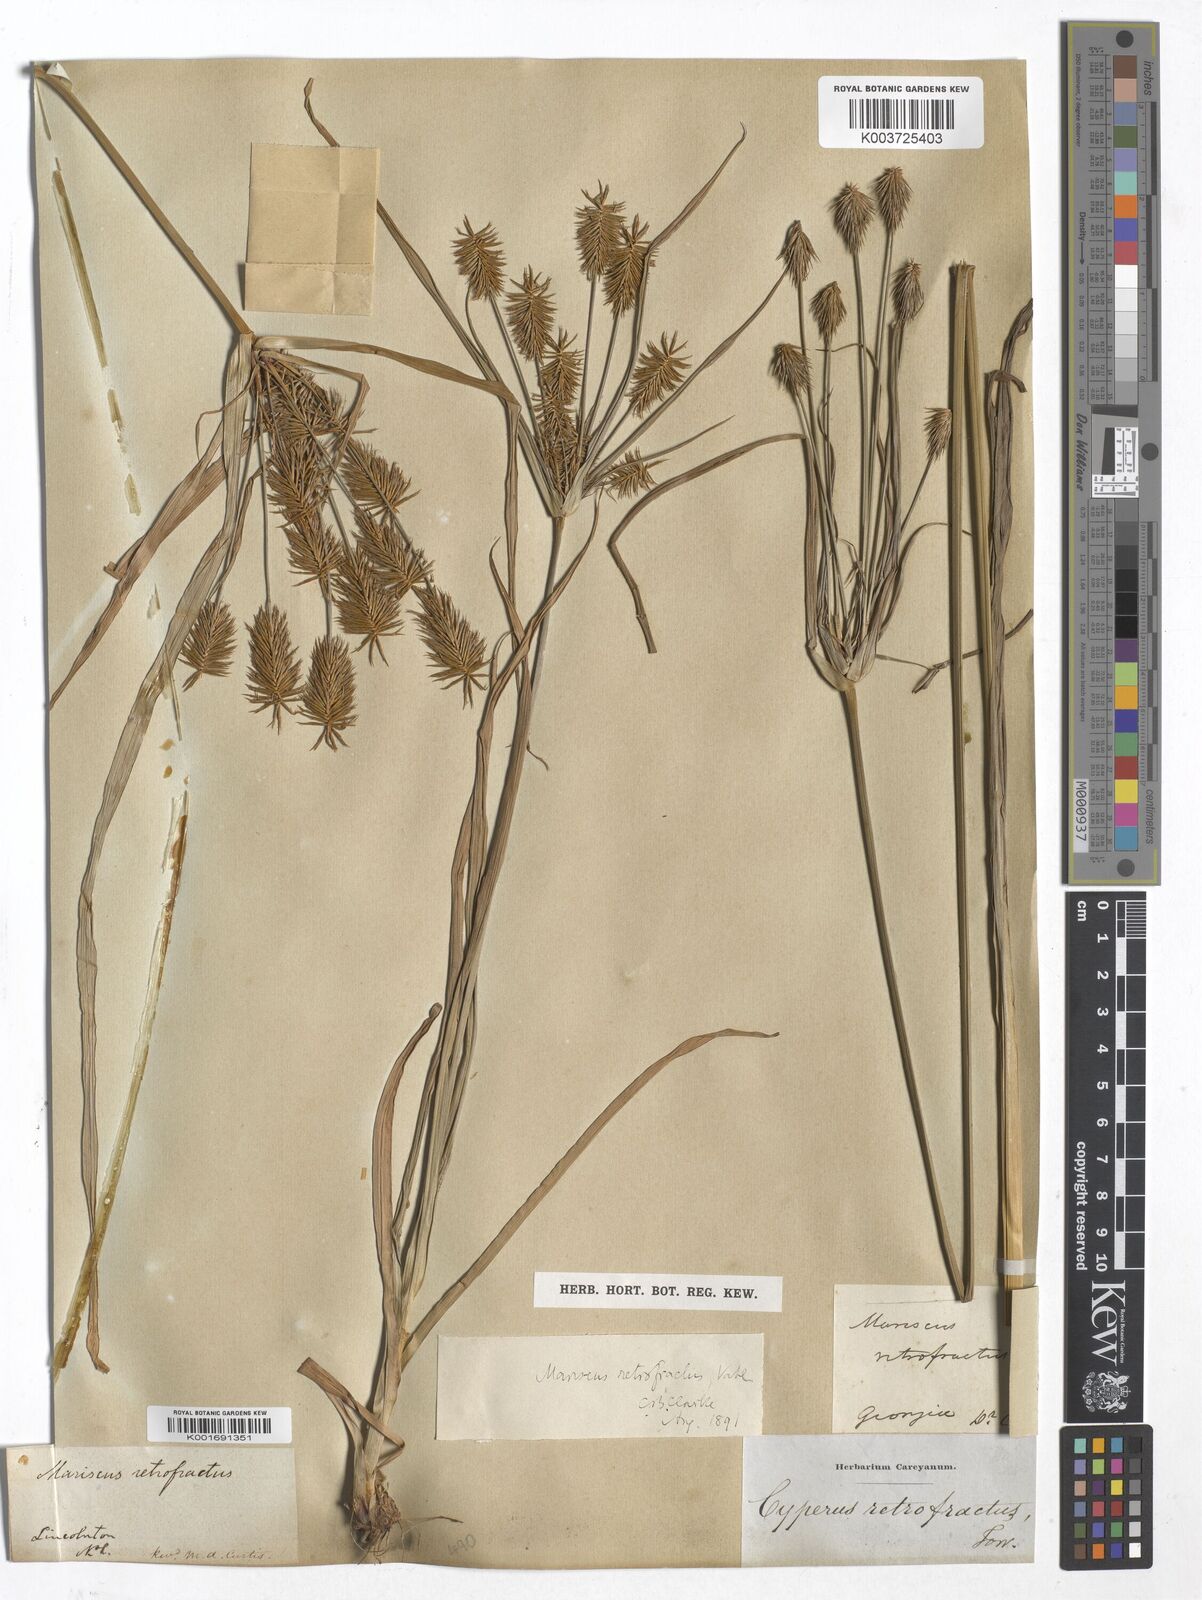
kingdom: Plantae
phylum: Tracheophyta
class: Liliopsida
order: Poales
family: Cyperaceae
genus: Cyperus
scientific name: Cyperus retrofractus
